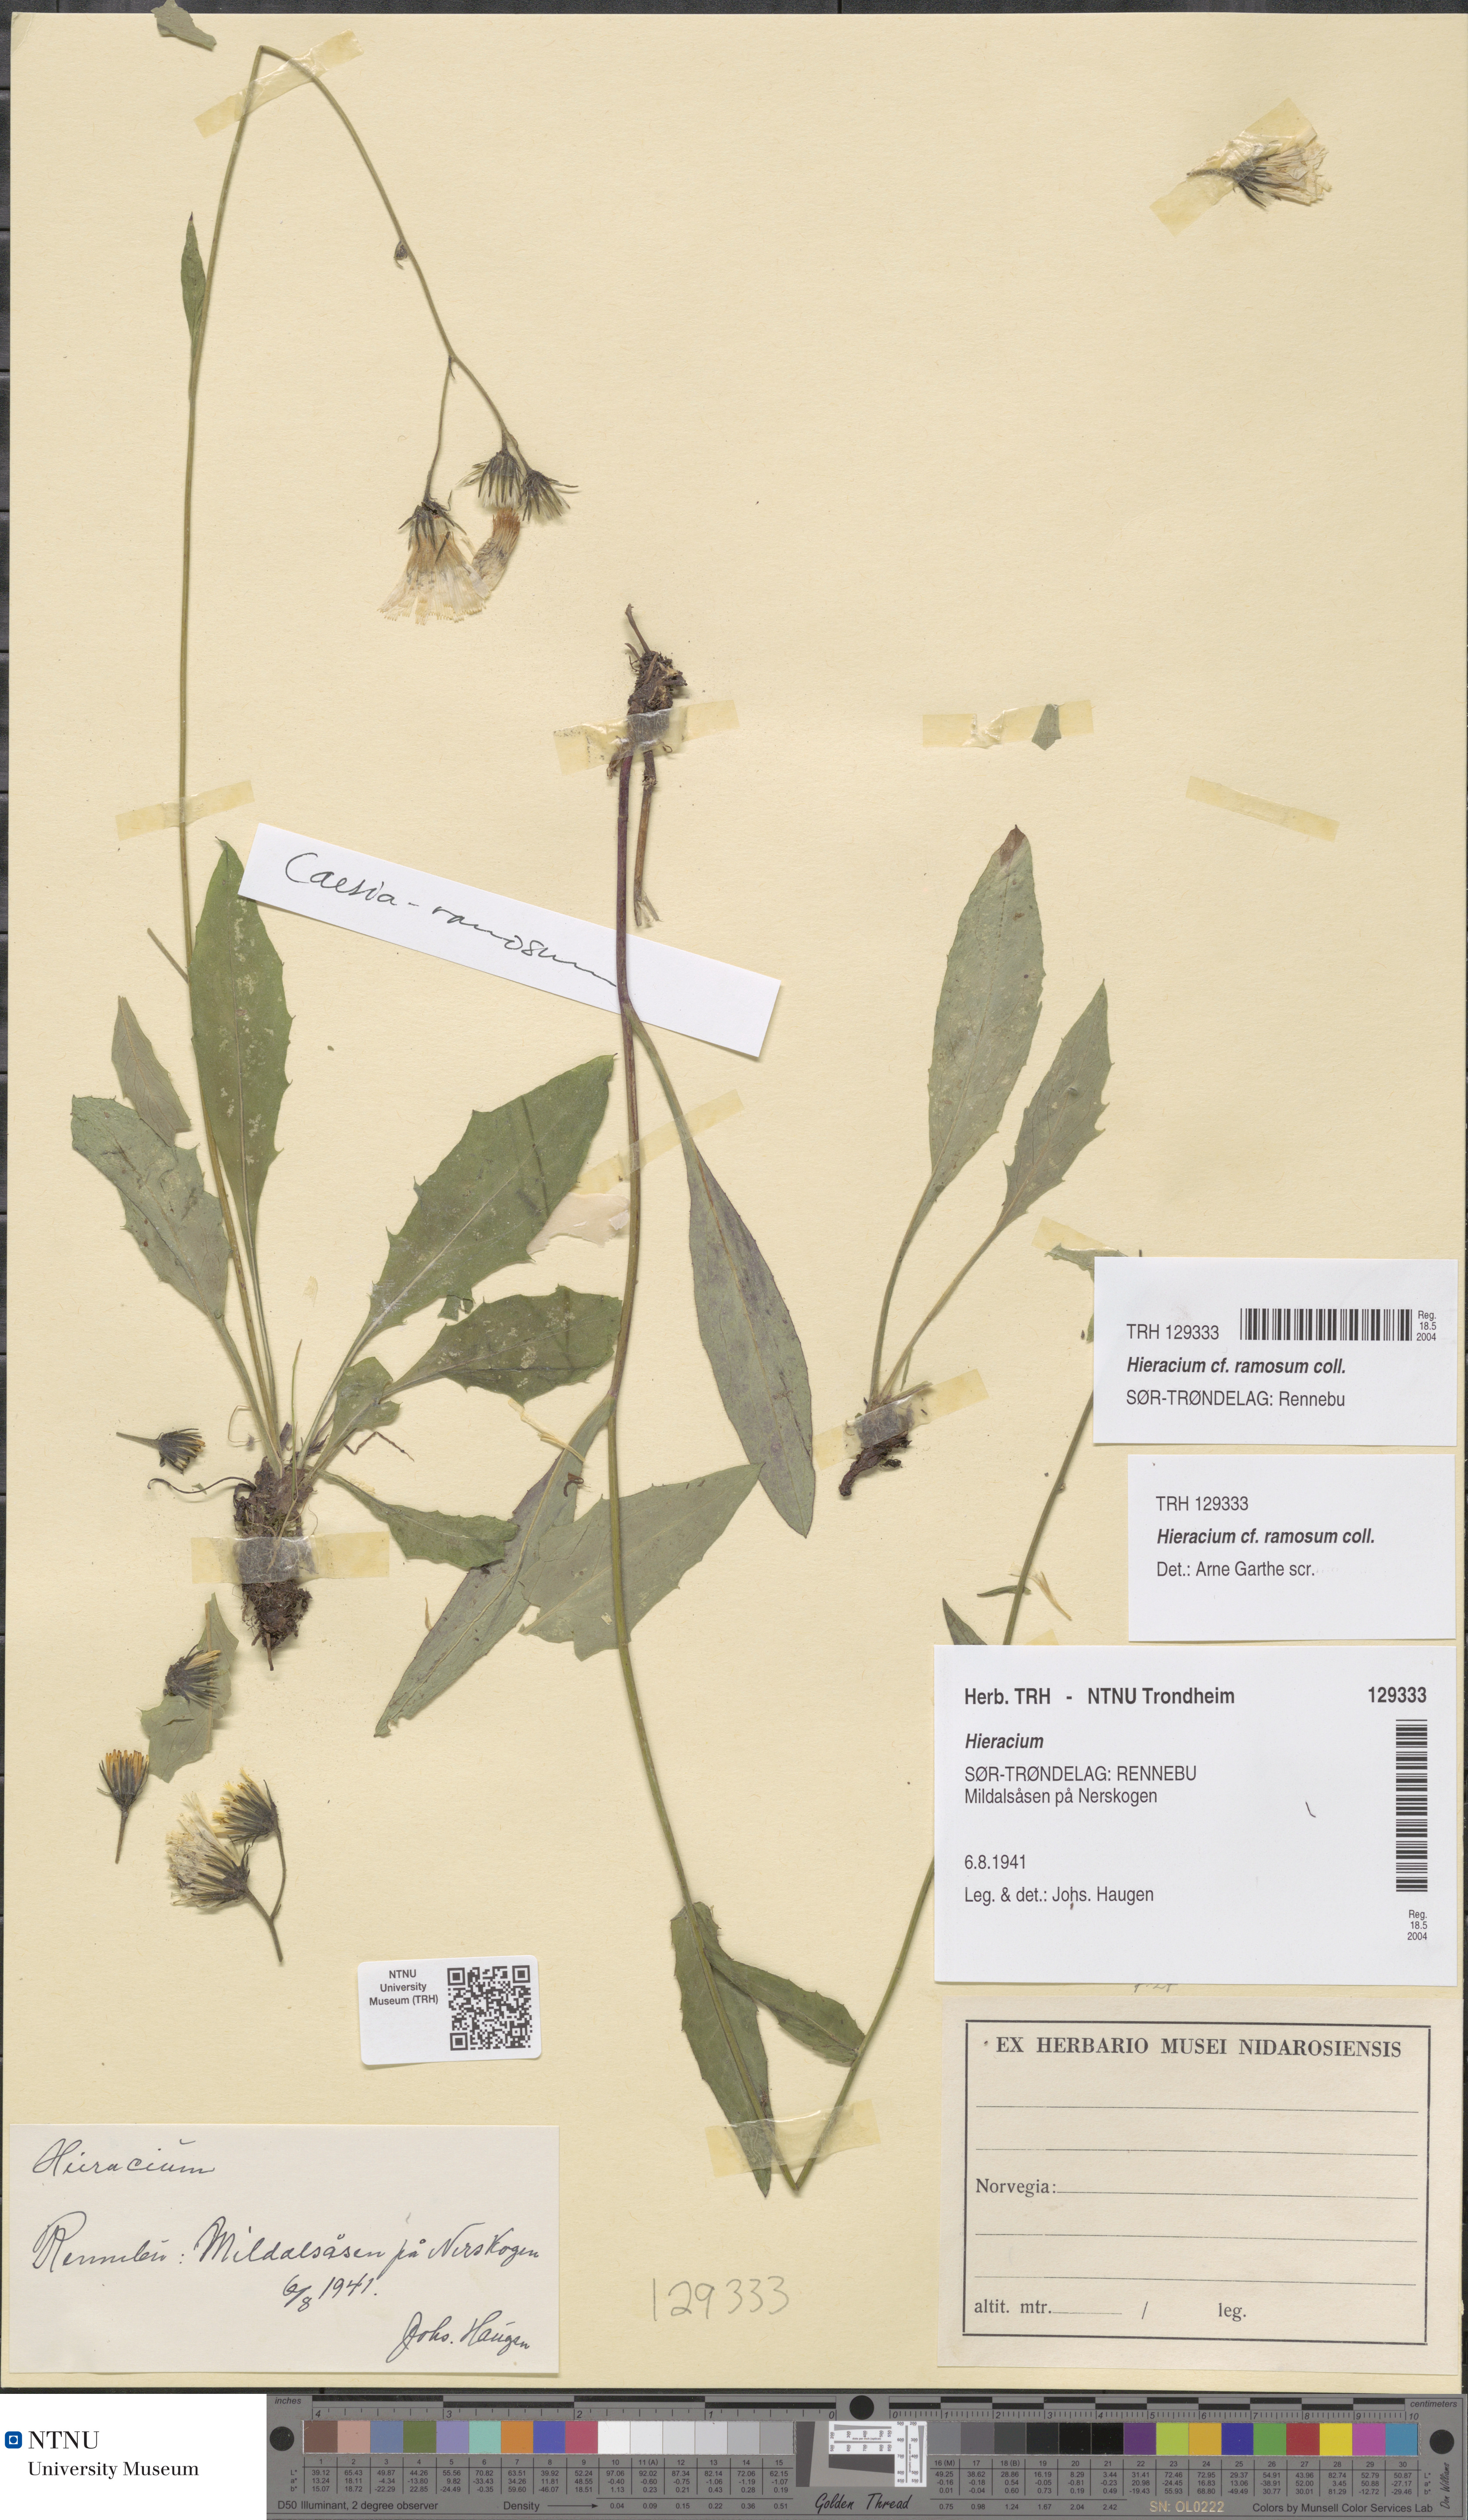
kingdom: Plantae
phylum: Tracheophyta
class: Magnoliopsida
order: Asterales
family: Asteraceae
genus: Hieracium
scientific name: Hieracium ramosum
